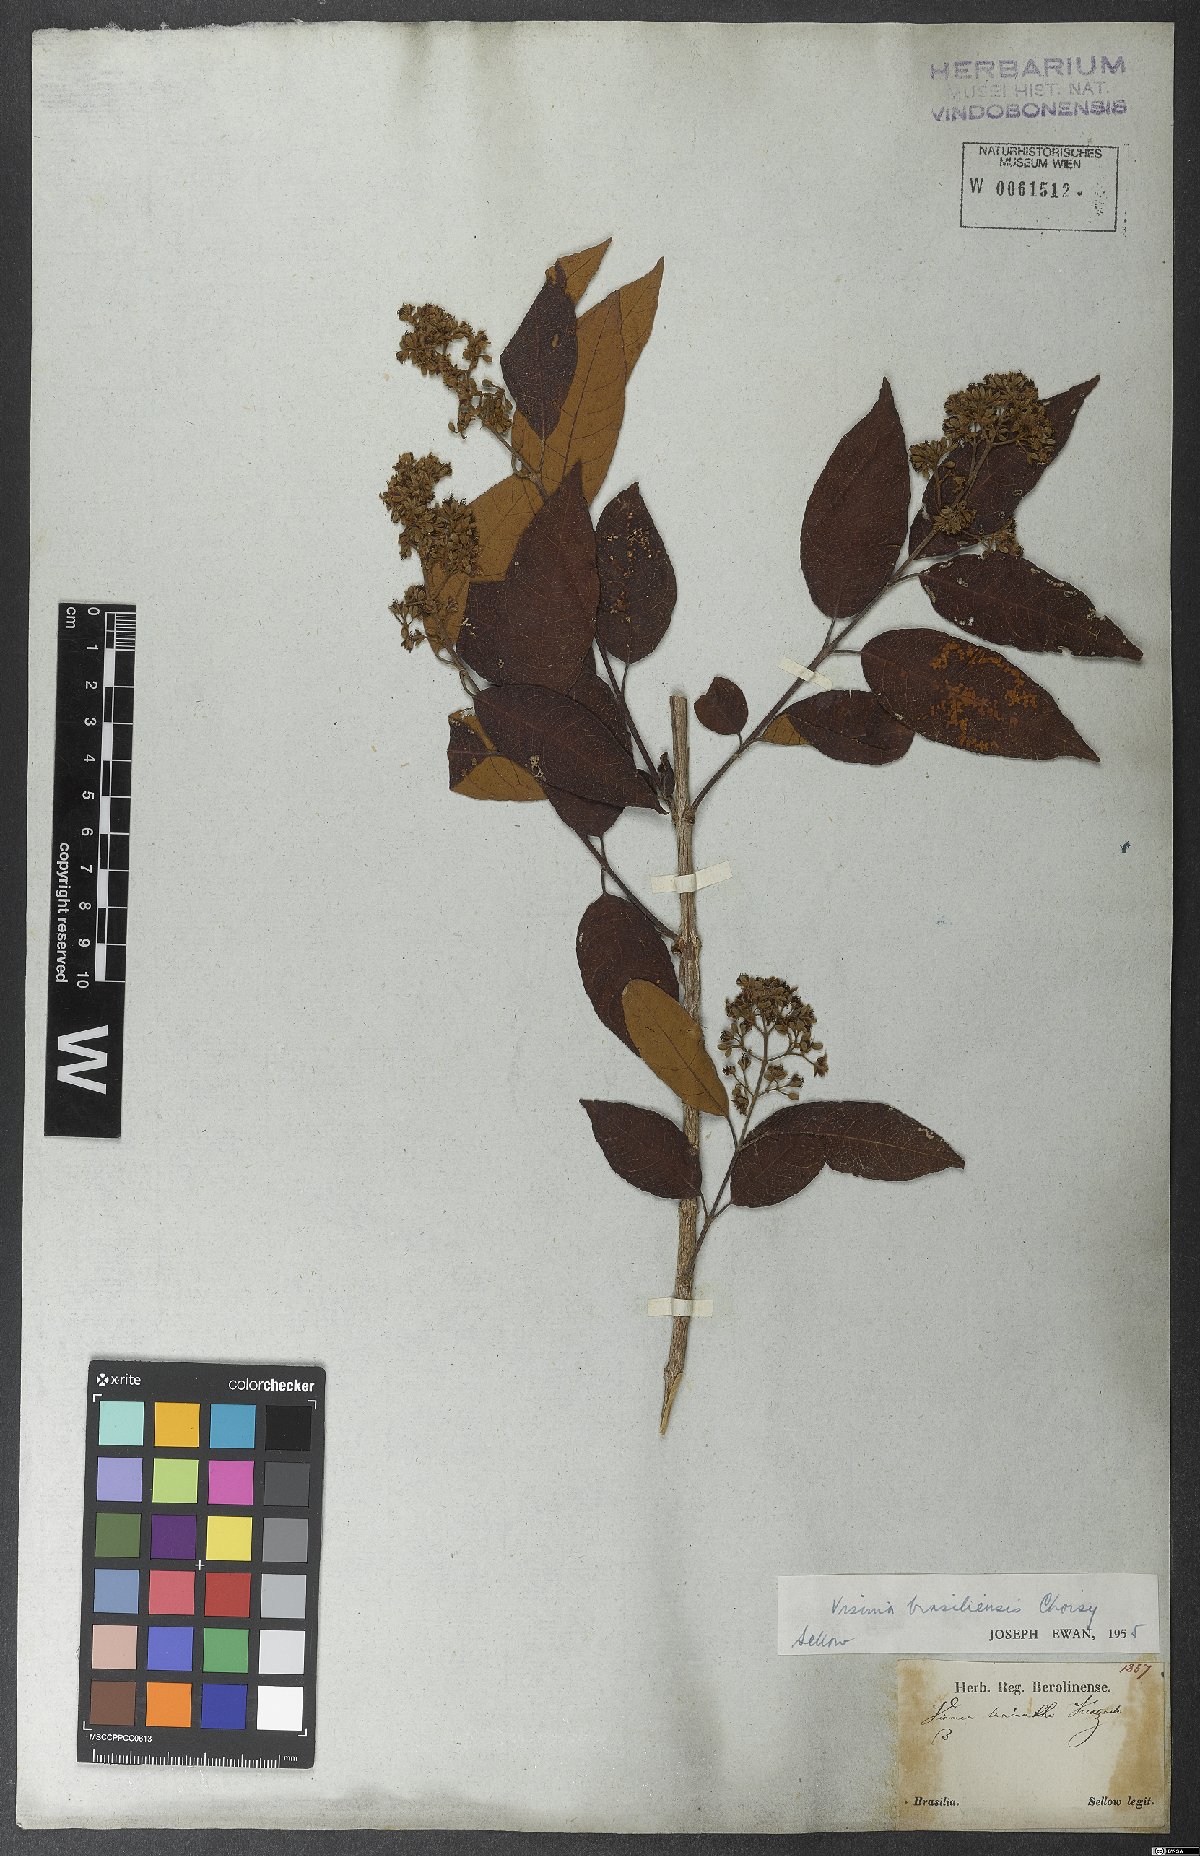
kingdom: Plantae
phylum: Tracheophyta
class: Magnoliopsida
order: Malpighiales
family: Hypericaceae
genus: Vismia
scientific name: Vismia brasiliensis
